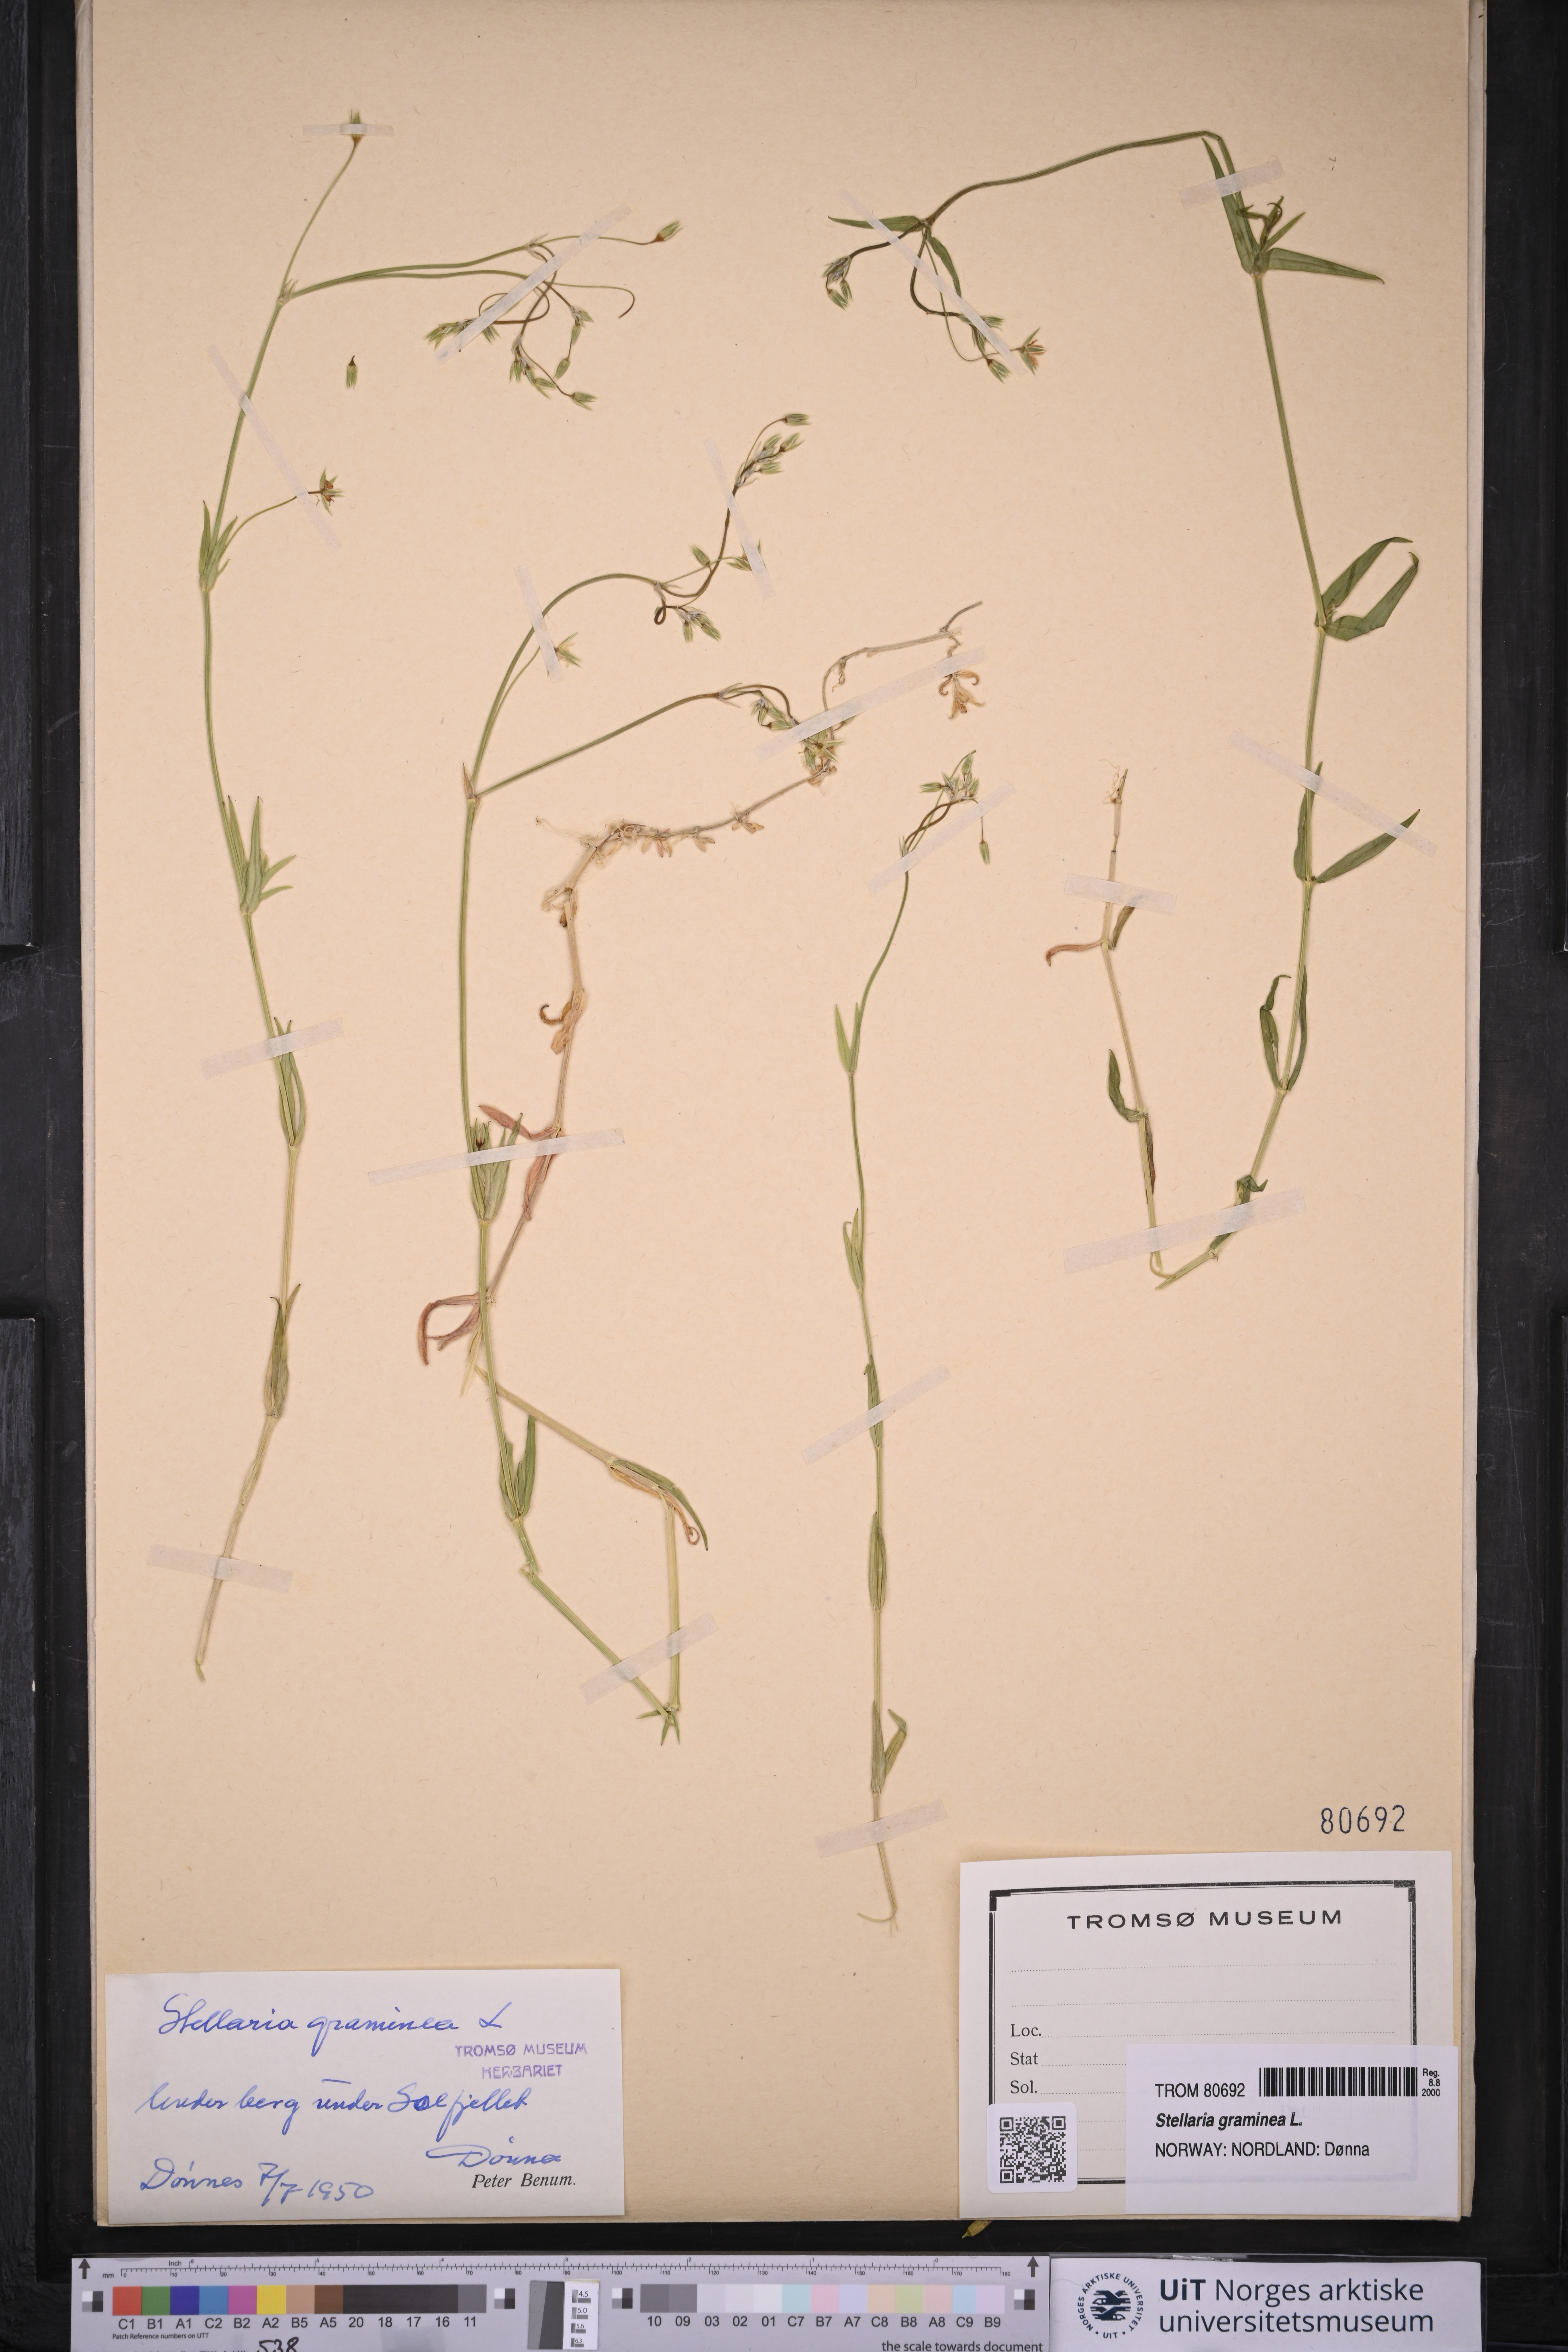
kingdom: Plantae
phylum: Tracheophyta
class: Magnoliopsida
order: Caryophyllales
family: Caryophyllaceae
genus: Stellaria
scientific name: Stellaria graminea
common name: Grass-like starwort
